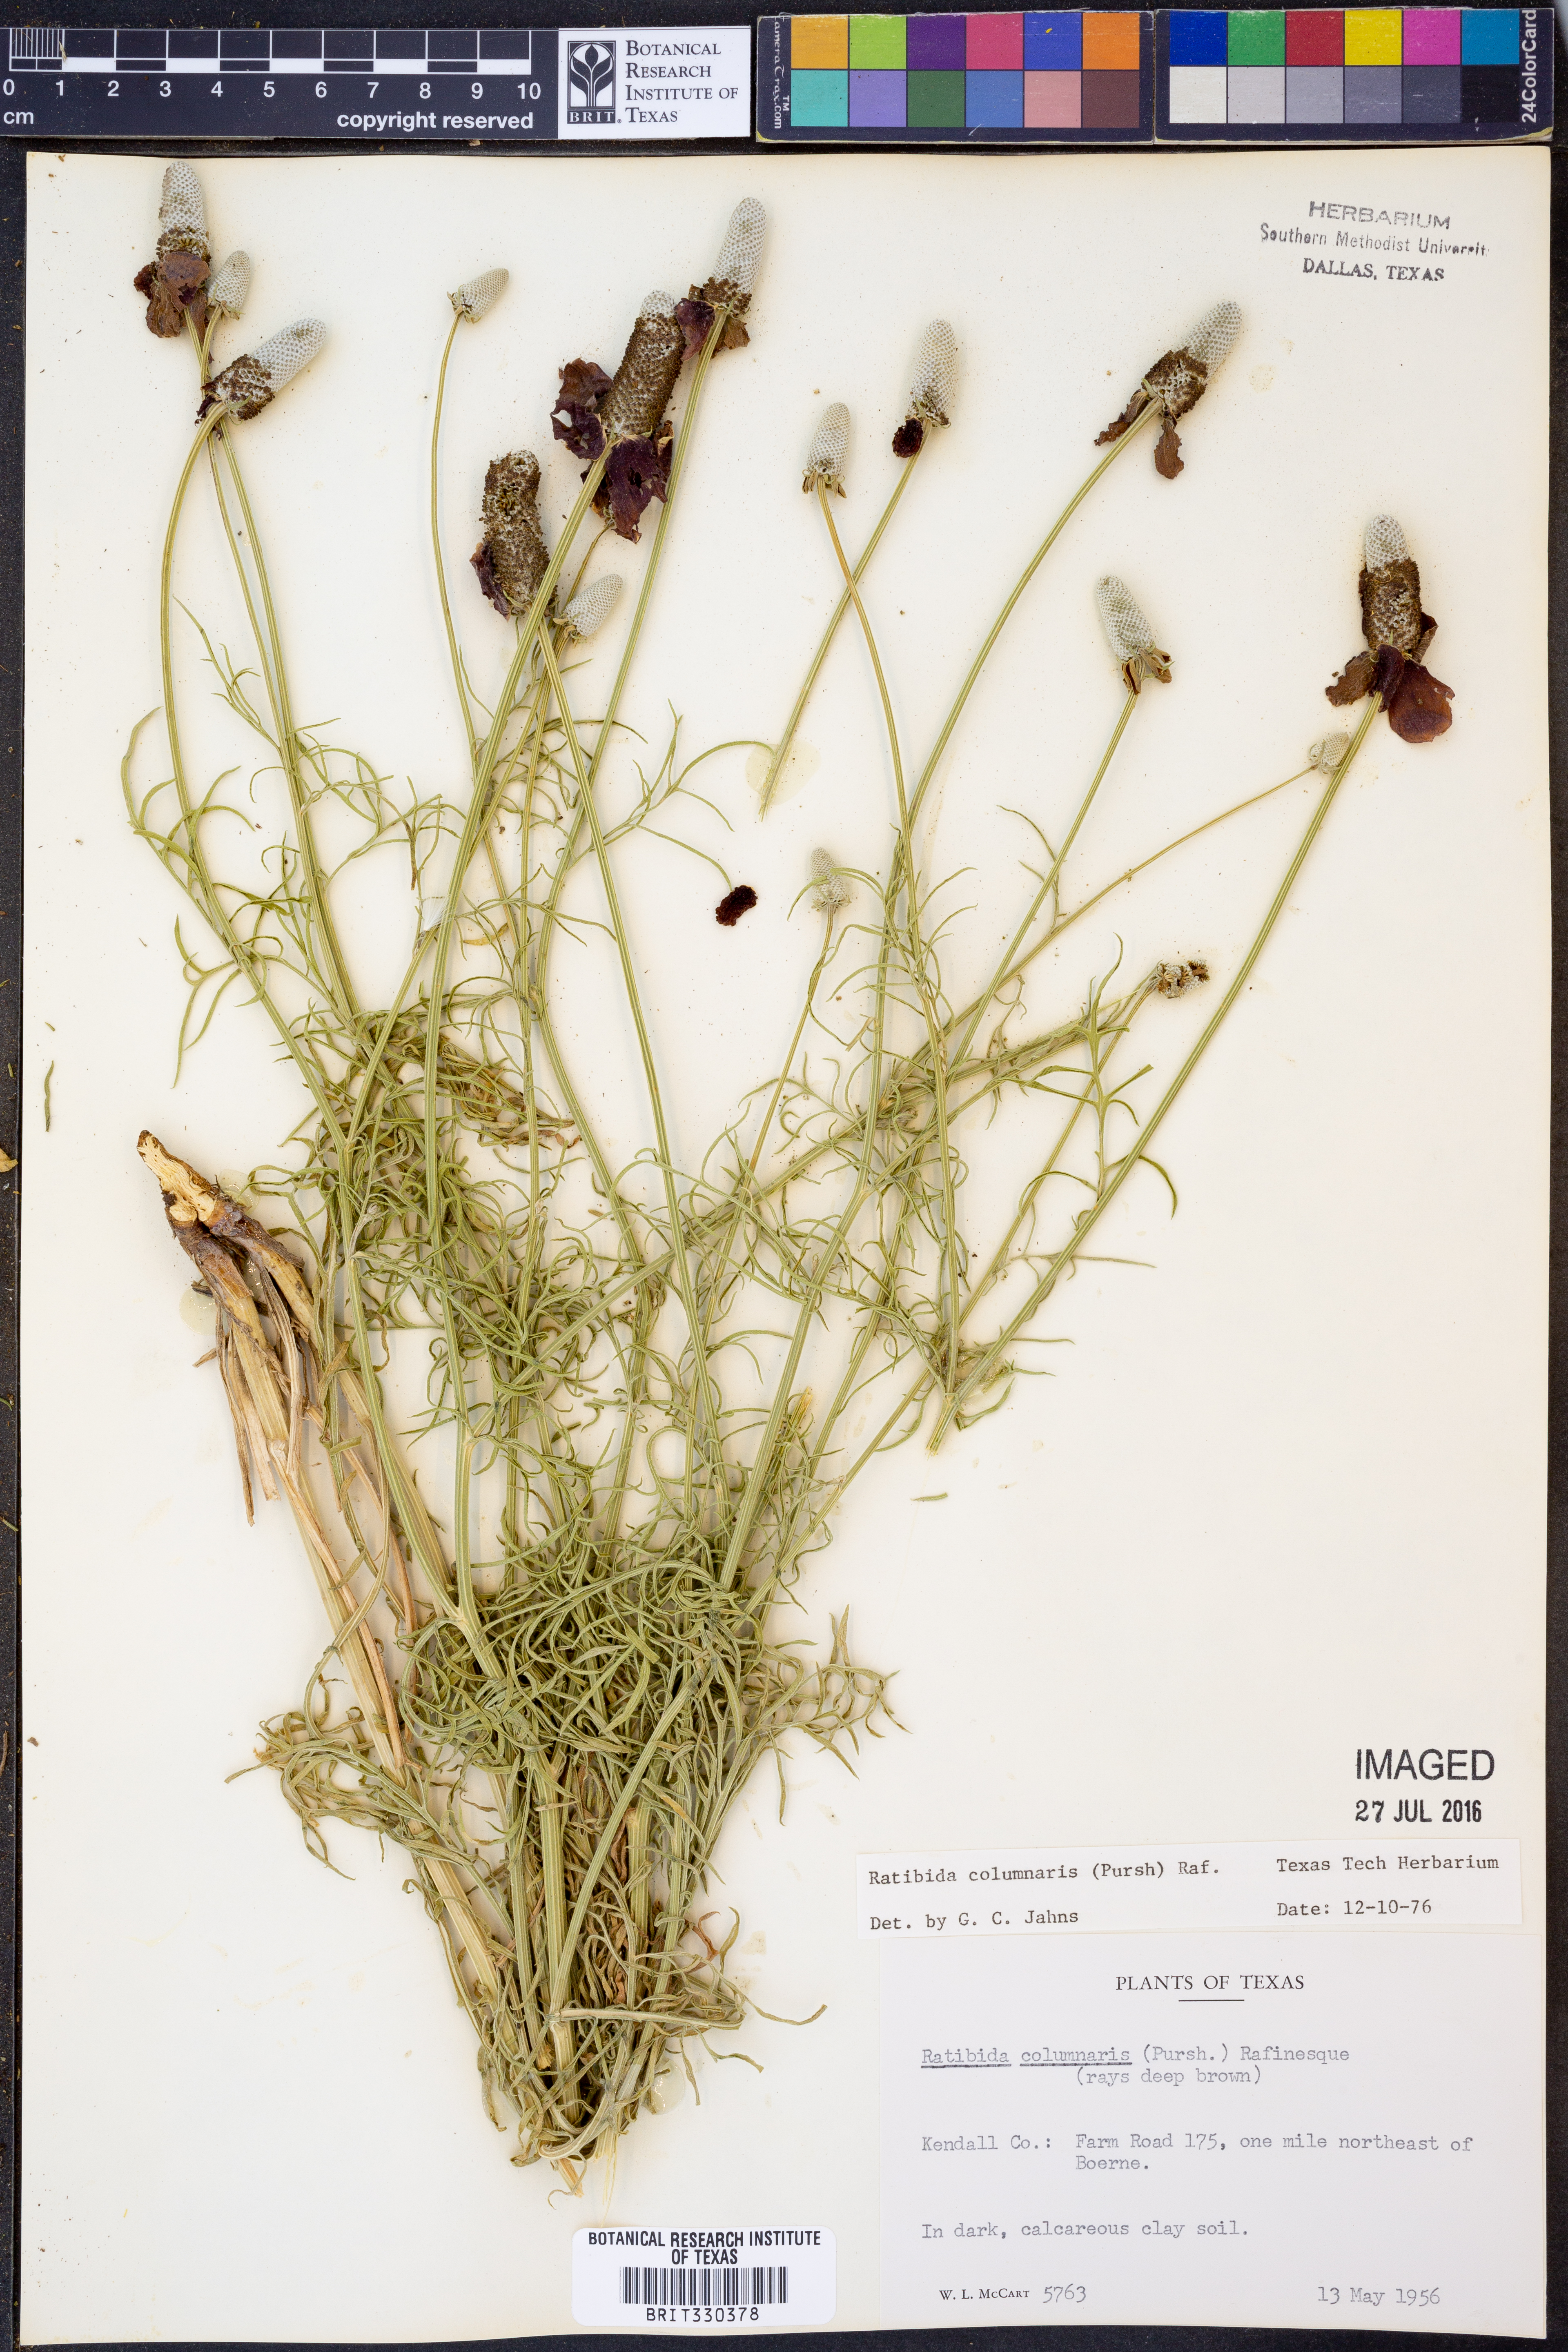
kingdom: Plantae
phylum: Tracheophyta
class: Magnoliopsida
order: Asterales
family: Asteraceae
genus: Ratibida
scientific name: Ratibida columnifera
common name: Prairie coneflower
